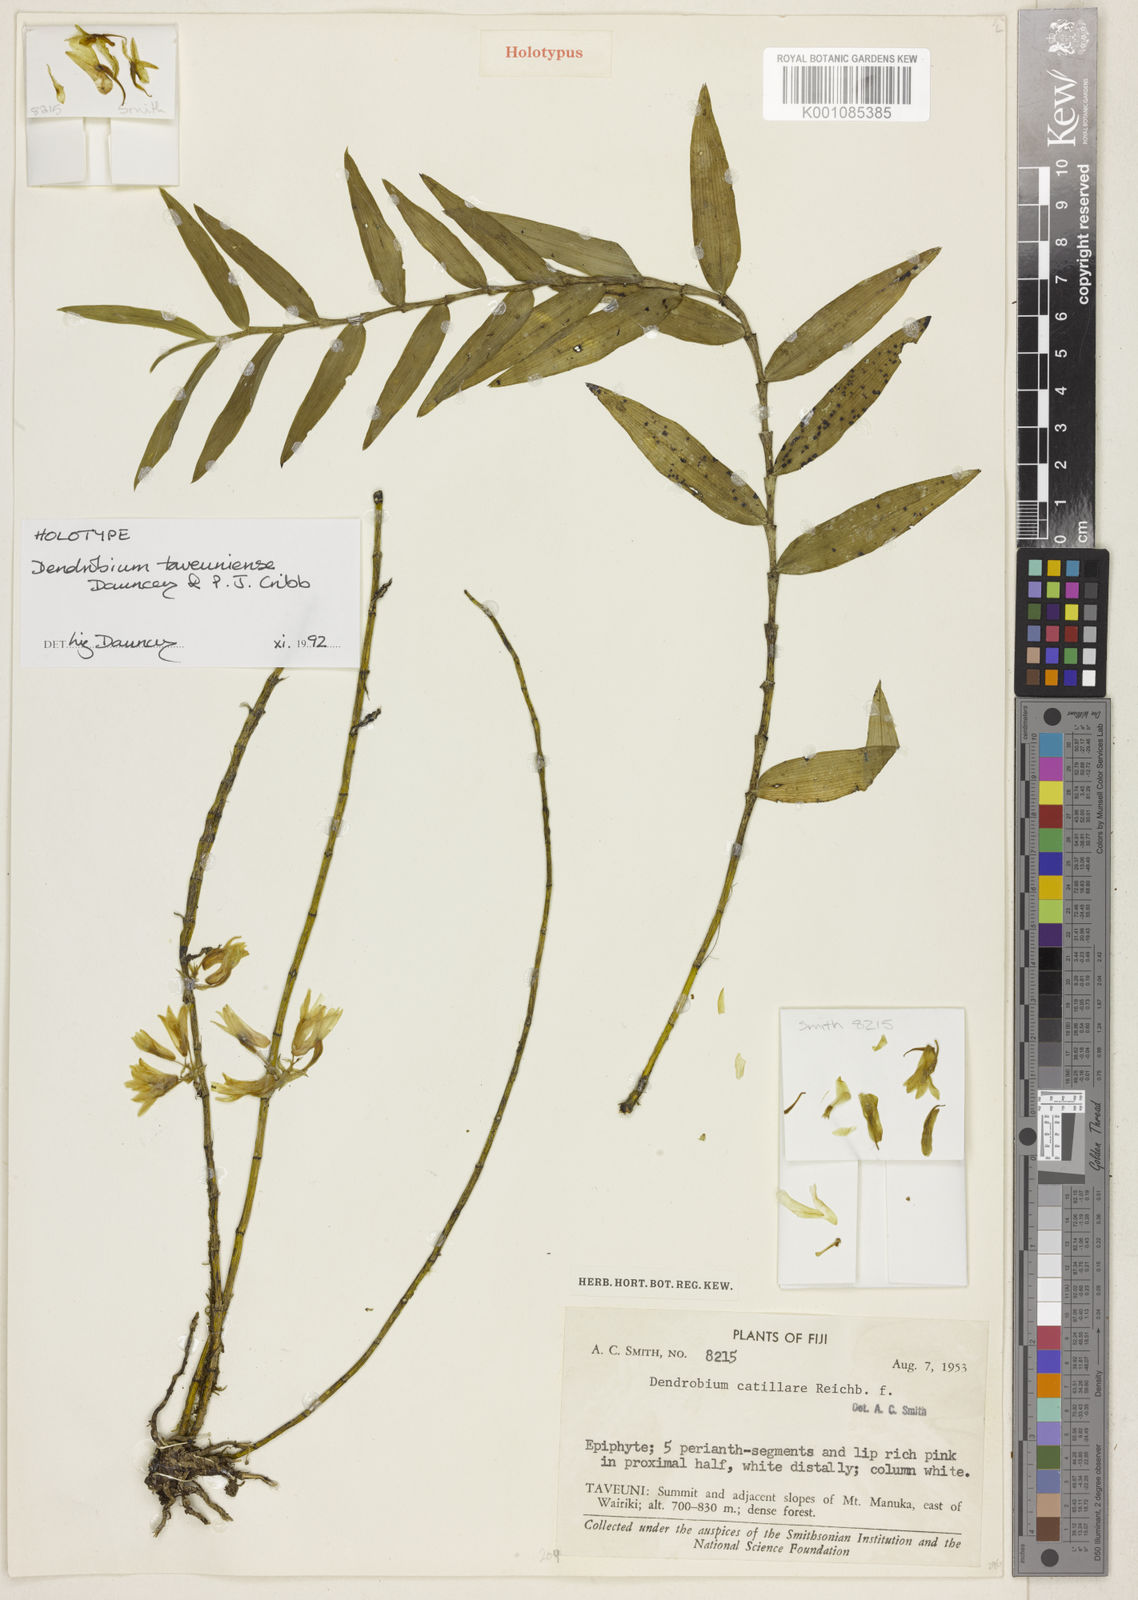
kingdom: Plantae
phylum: Tracheophyta
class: Liliopsida
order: Asparagales
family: Orchidaceae
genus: Dendrobium
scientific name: Dendrobium taveuniense
